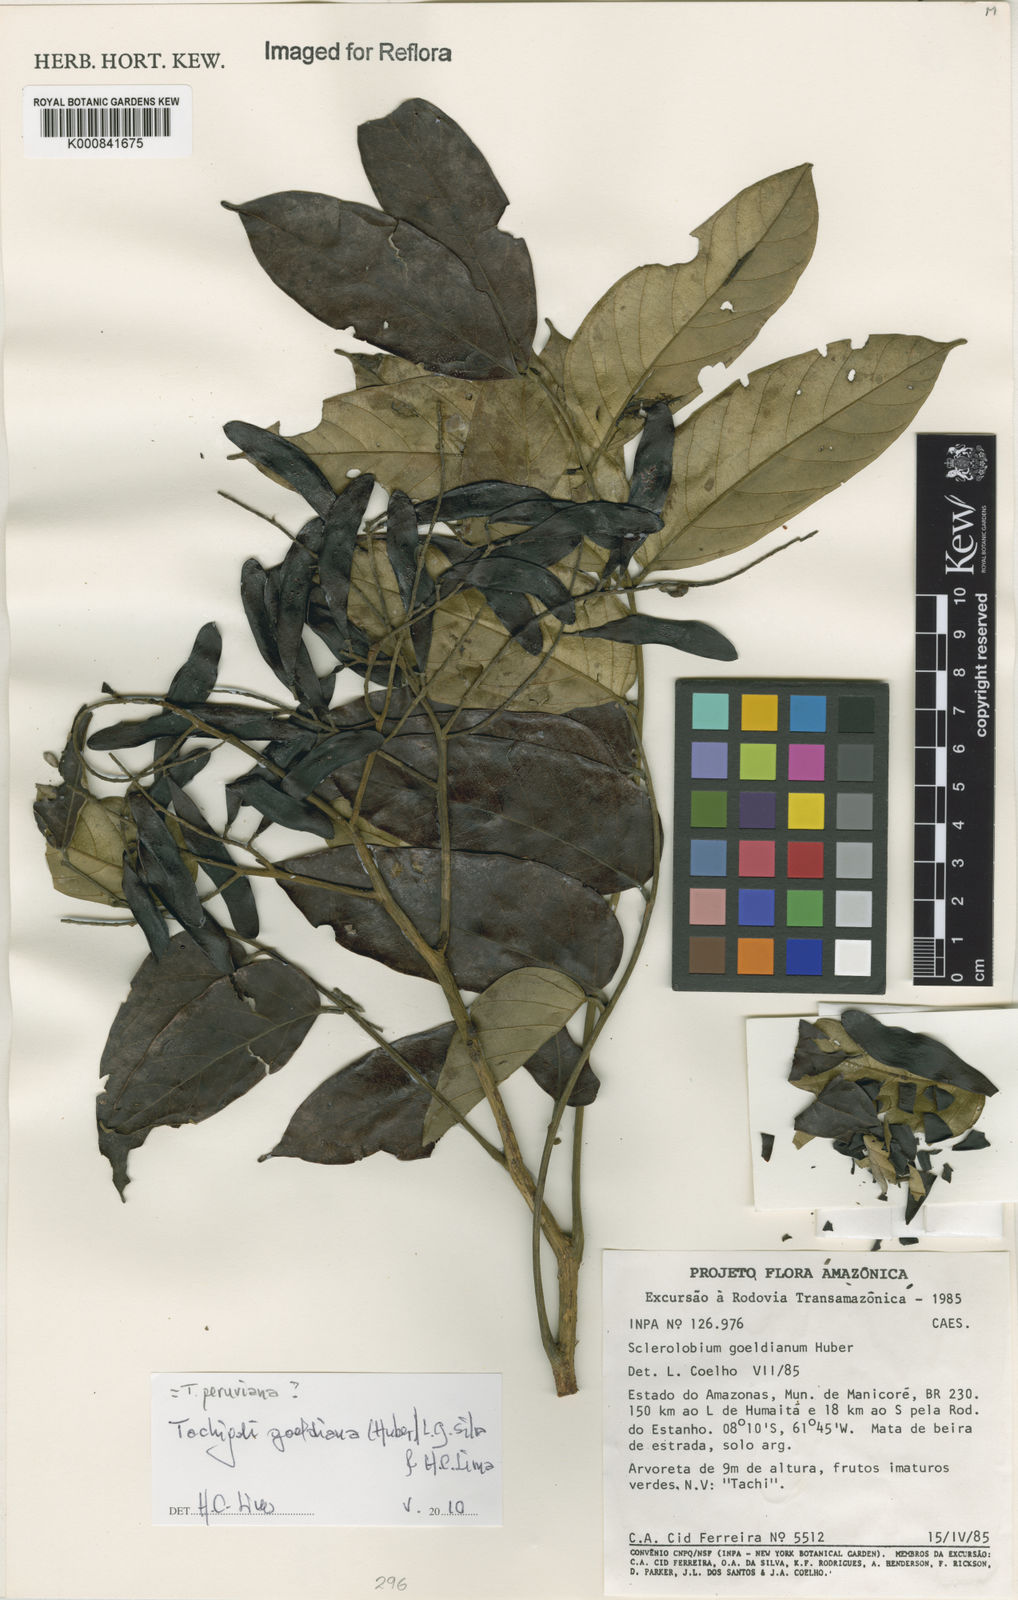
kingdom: Plantae
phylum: Tracheophyta
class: Magnoliopsida
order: Fabales
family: Fabaceae
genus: Tachigali
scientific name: Tachigali goeldiana
